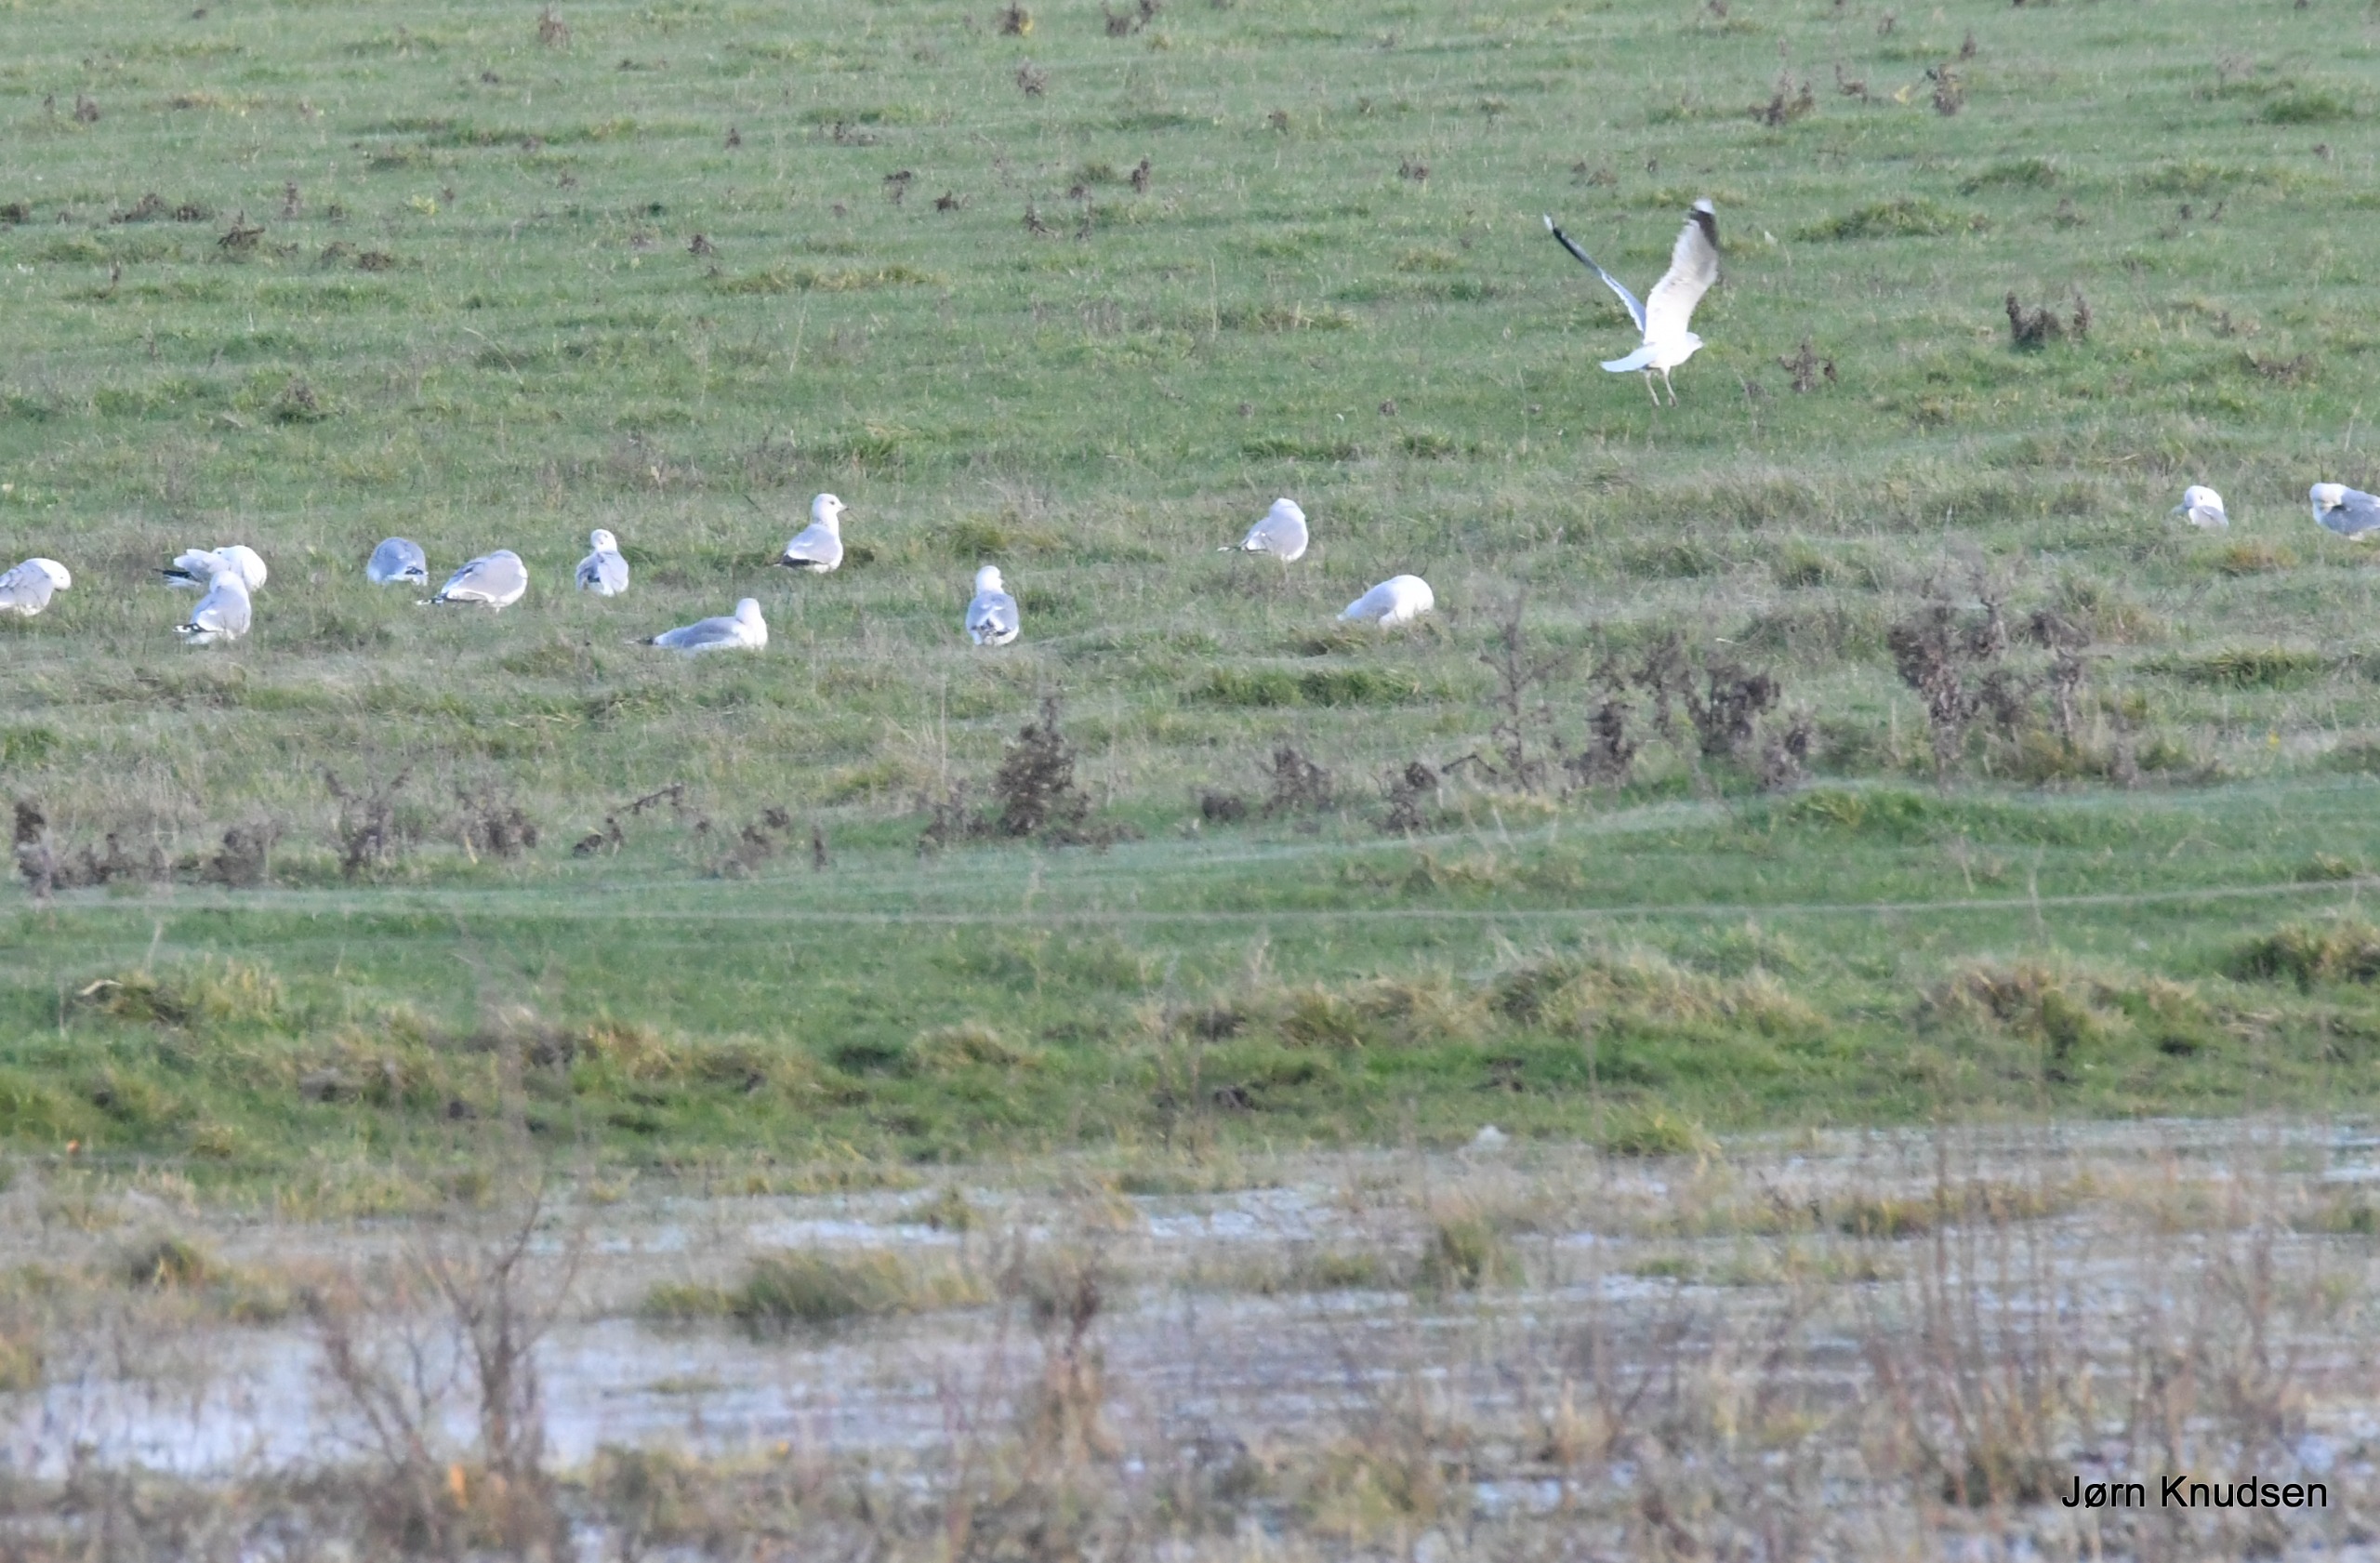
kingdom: Animalia
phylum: Chordata
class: Aves
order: Charadriiformes
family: Laridae
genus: Larus
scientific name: Larus canus
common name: Stormmåge
